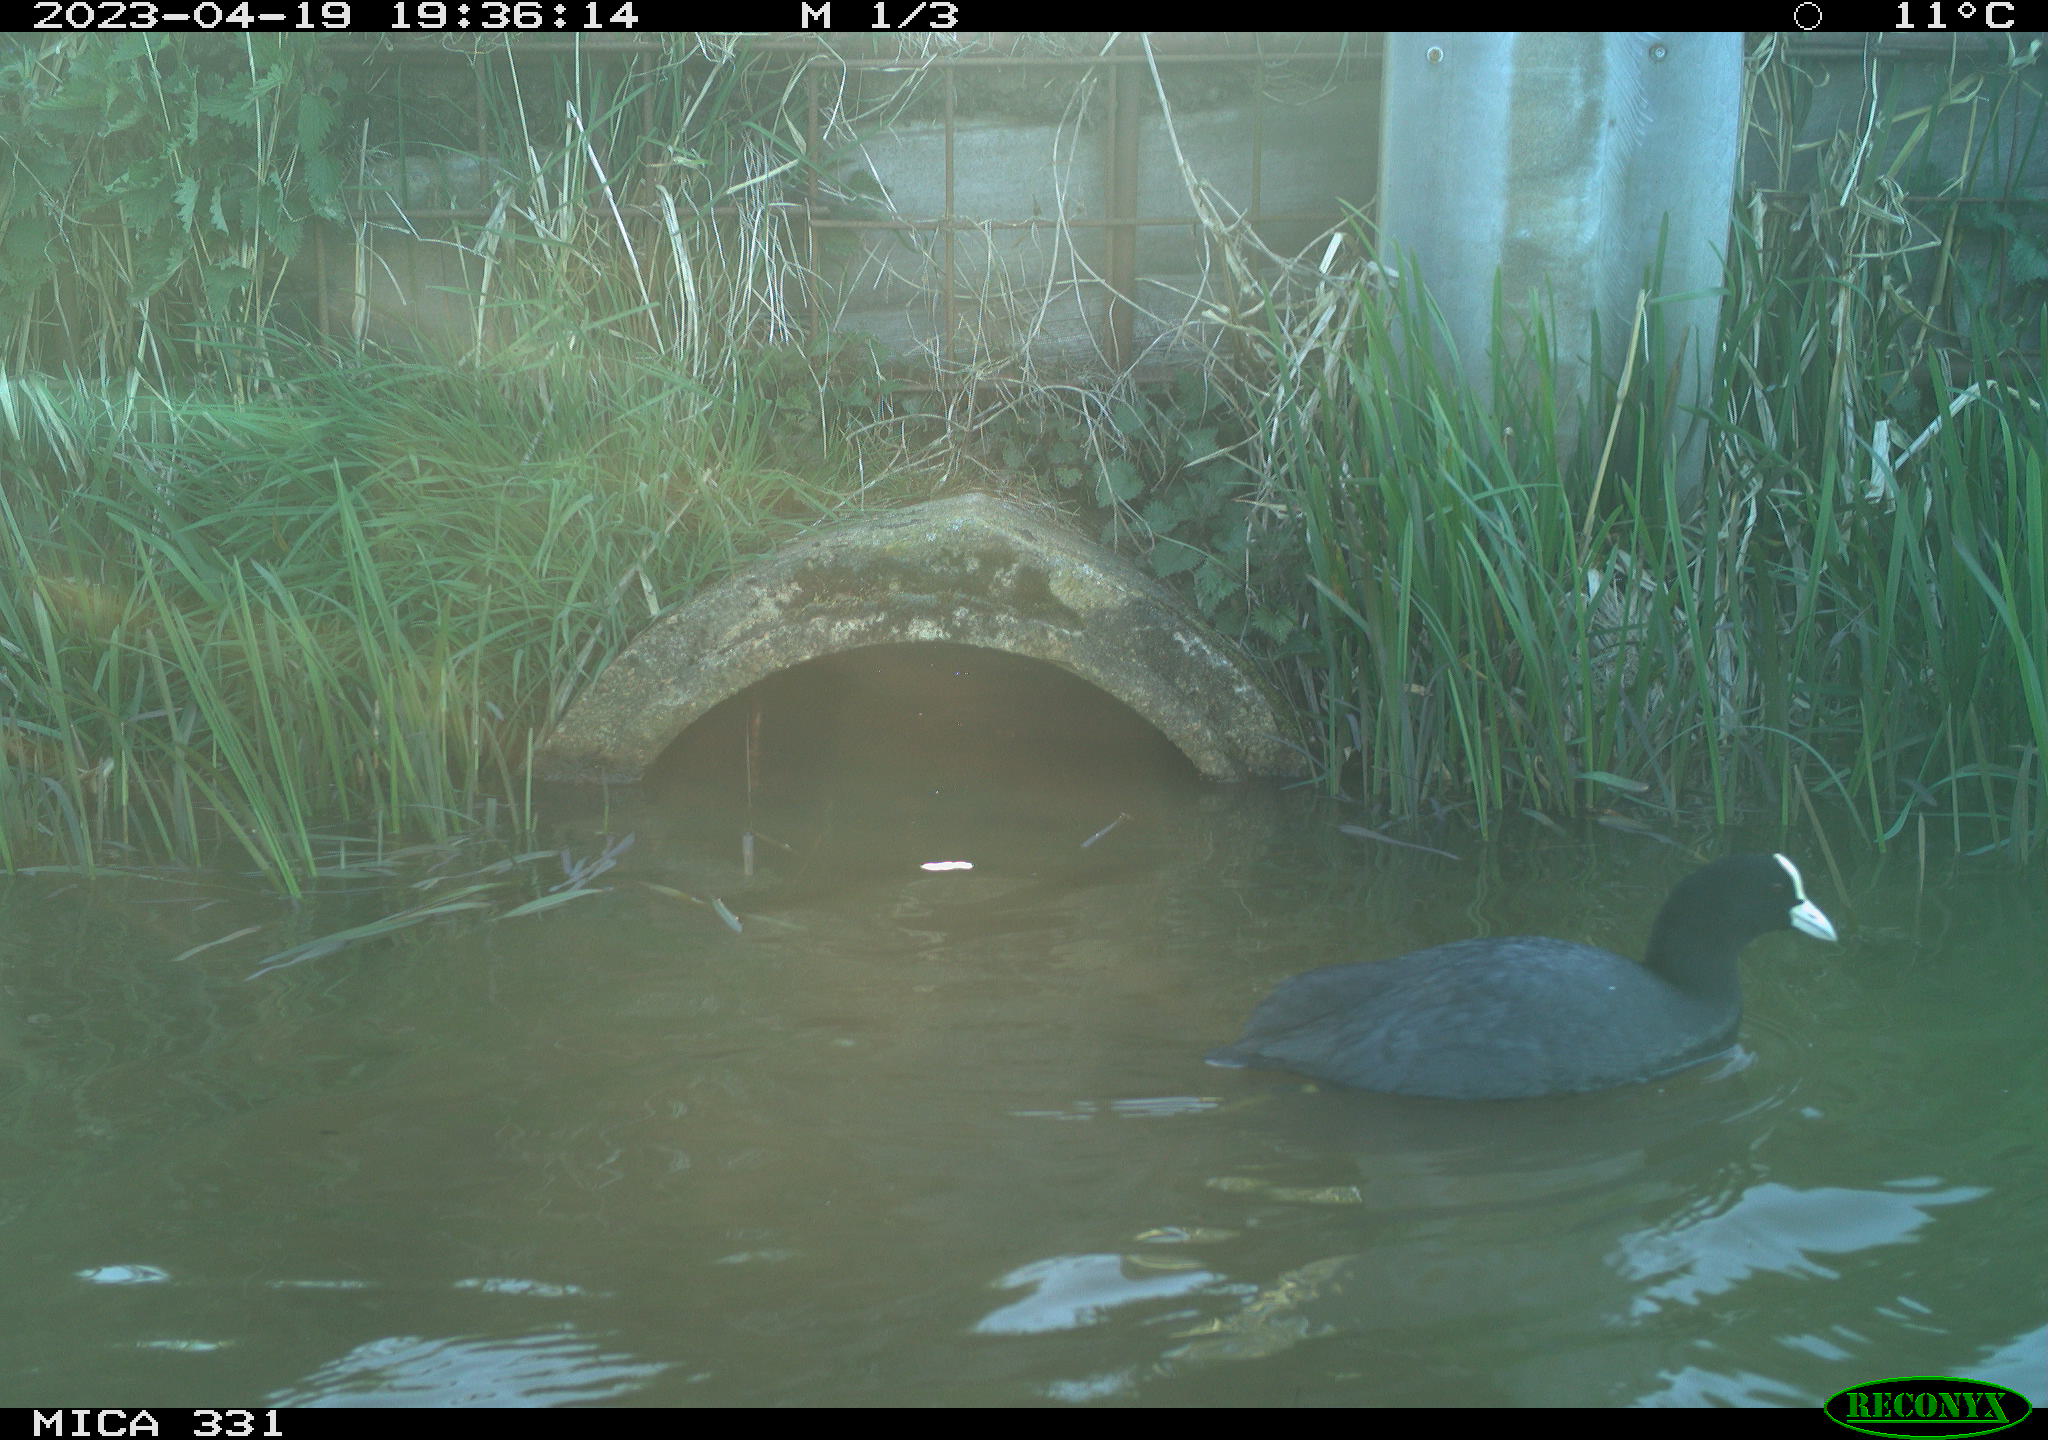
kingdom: Animalia
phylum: Chordata
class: Aves
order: Gruiformes
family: Rallidae
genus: Fulica
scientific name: Fulica atra
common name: Eurasian coot
